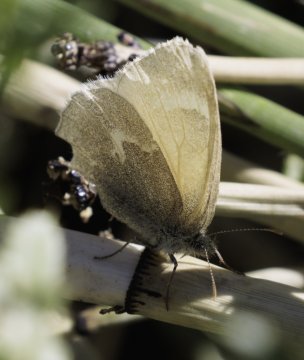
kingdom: Animalia
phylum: Arthropoda
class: Insecta
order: Lepidoptera
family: Nymphalidae
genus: Coenonympha
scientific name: Coenonympha tullia
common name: Large Heath
